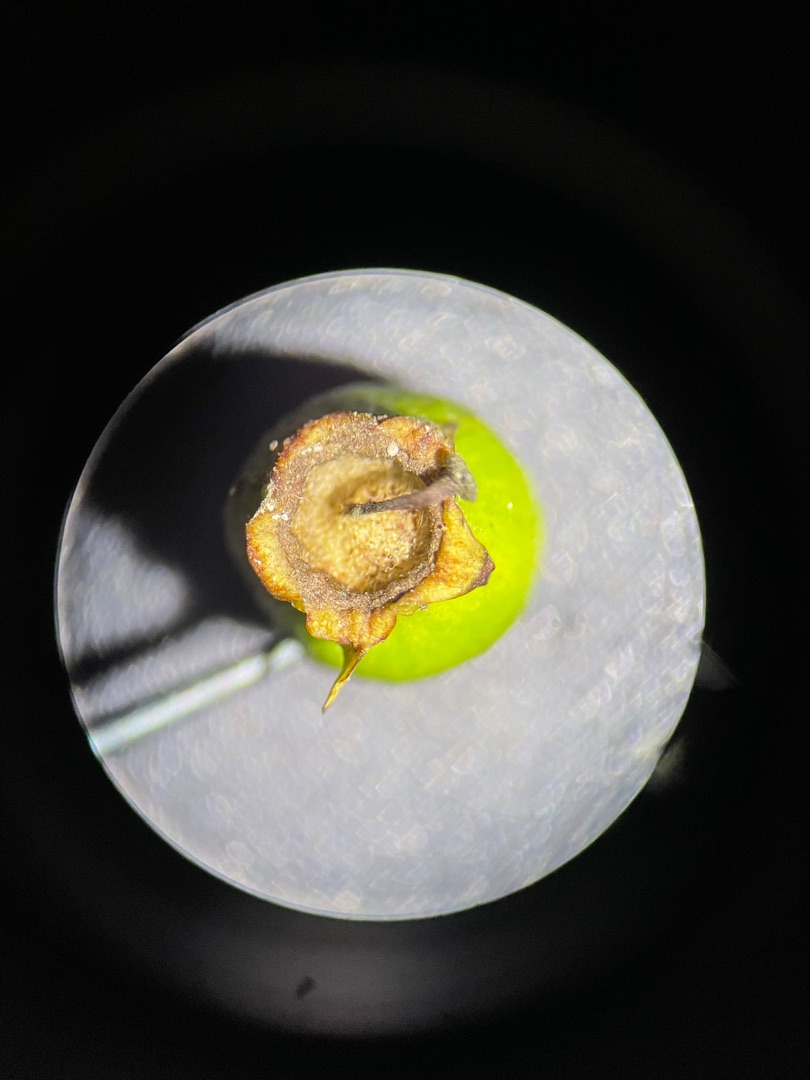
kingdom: Plantae
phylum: Tracheophyta
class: Magnoliopsida
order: Rosales
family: Rosaceae
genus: Crataegus
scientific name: Crataegus media
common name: Almindelig hvidtjørn × engriflet hvidtjørn
